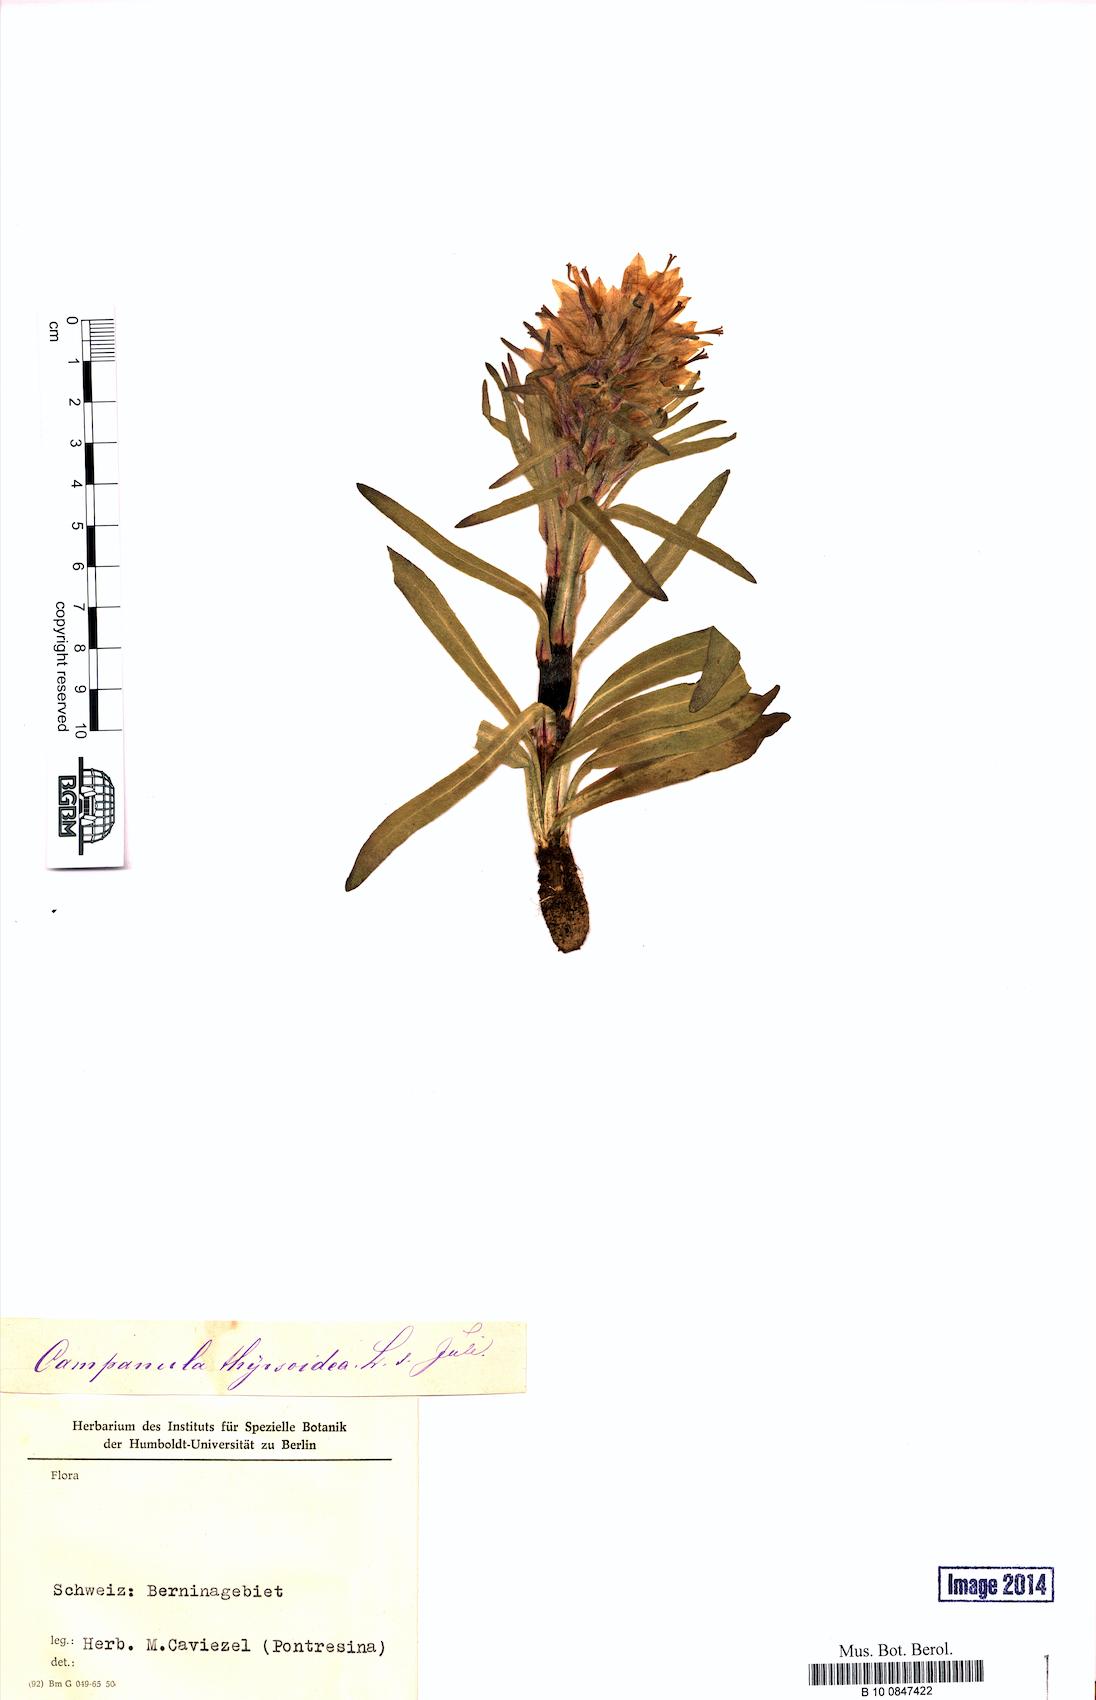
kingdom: Plantae
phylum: Tracheophyta
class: Magnoliopsida
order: Asterales
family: Campanulaceae
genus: Campanula
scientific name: Campanula thyrsoides
